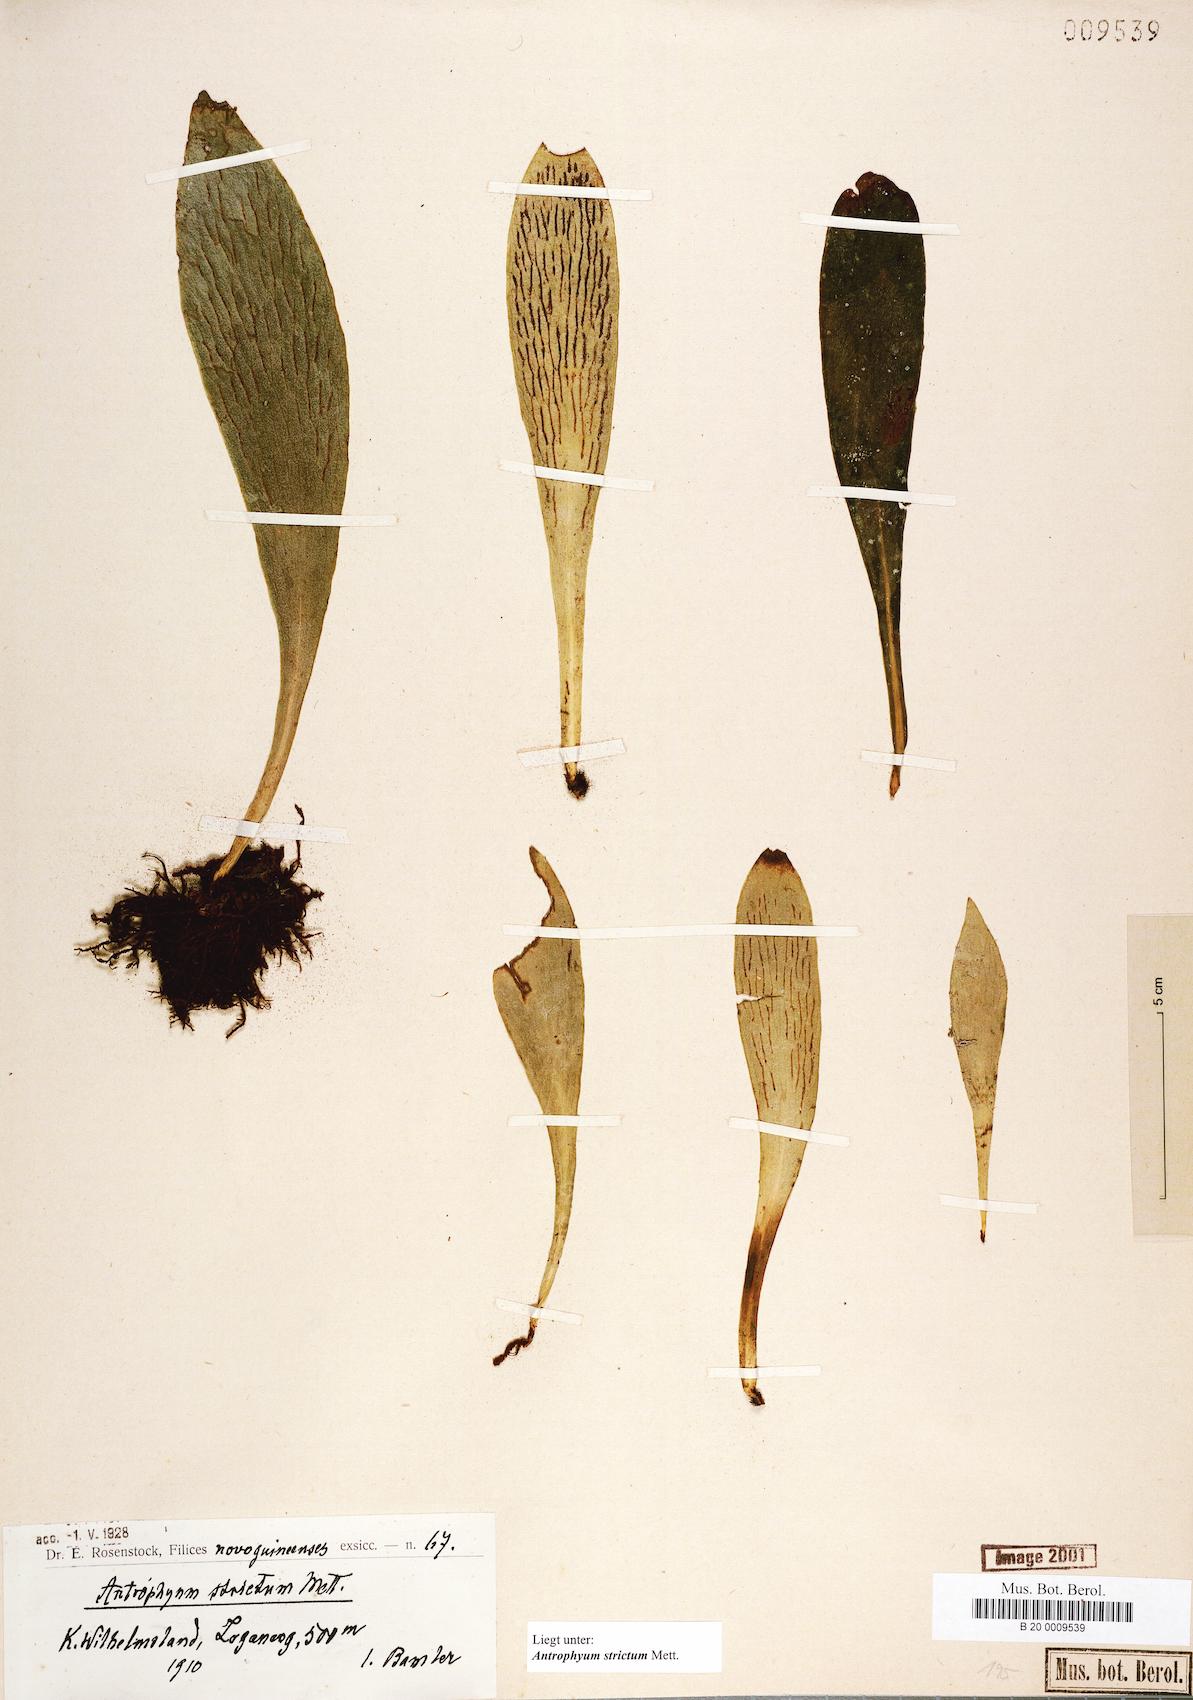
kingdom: Plantae
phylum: Tracheophyta
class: Polypodiopsida
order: Polypodiales
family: Pteridaceae
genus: Antrophyum
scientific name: Antrophyum strictum
